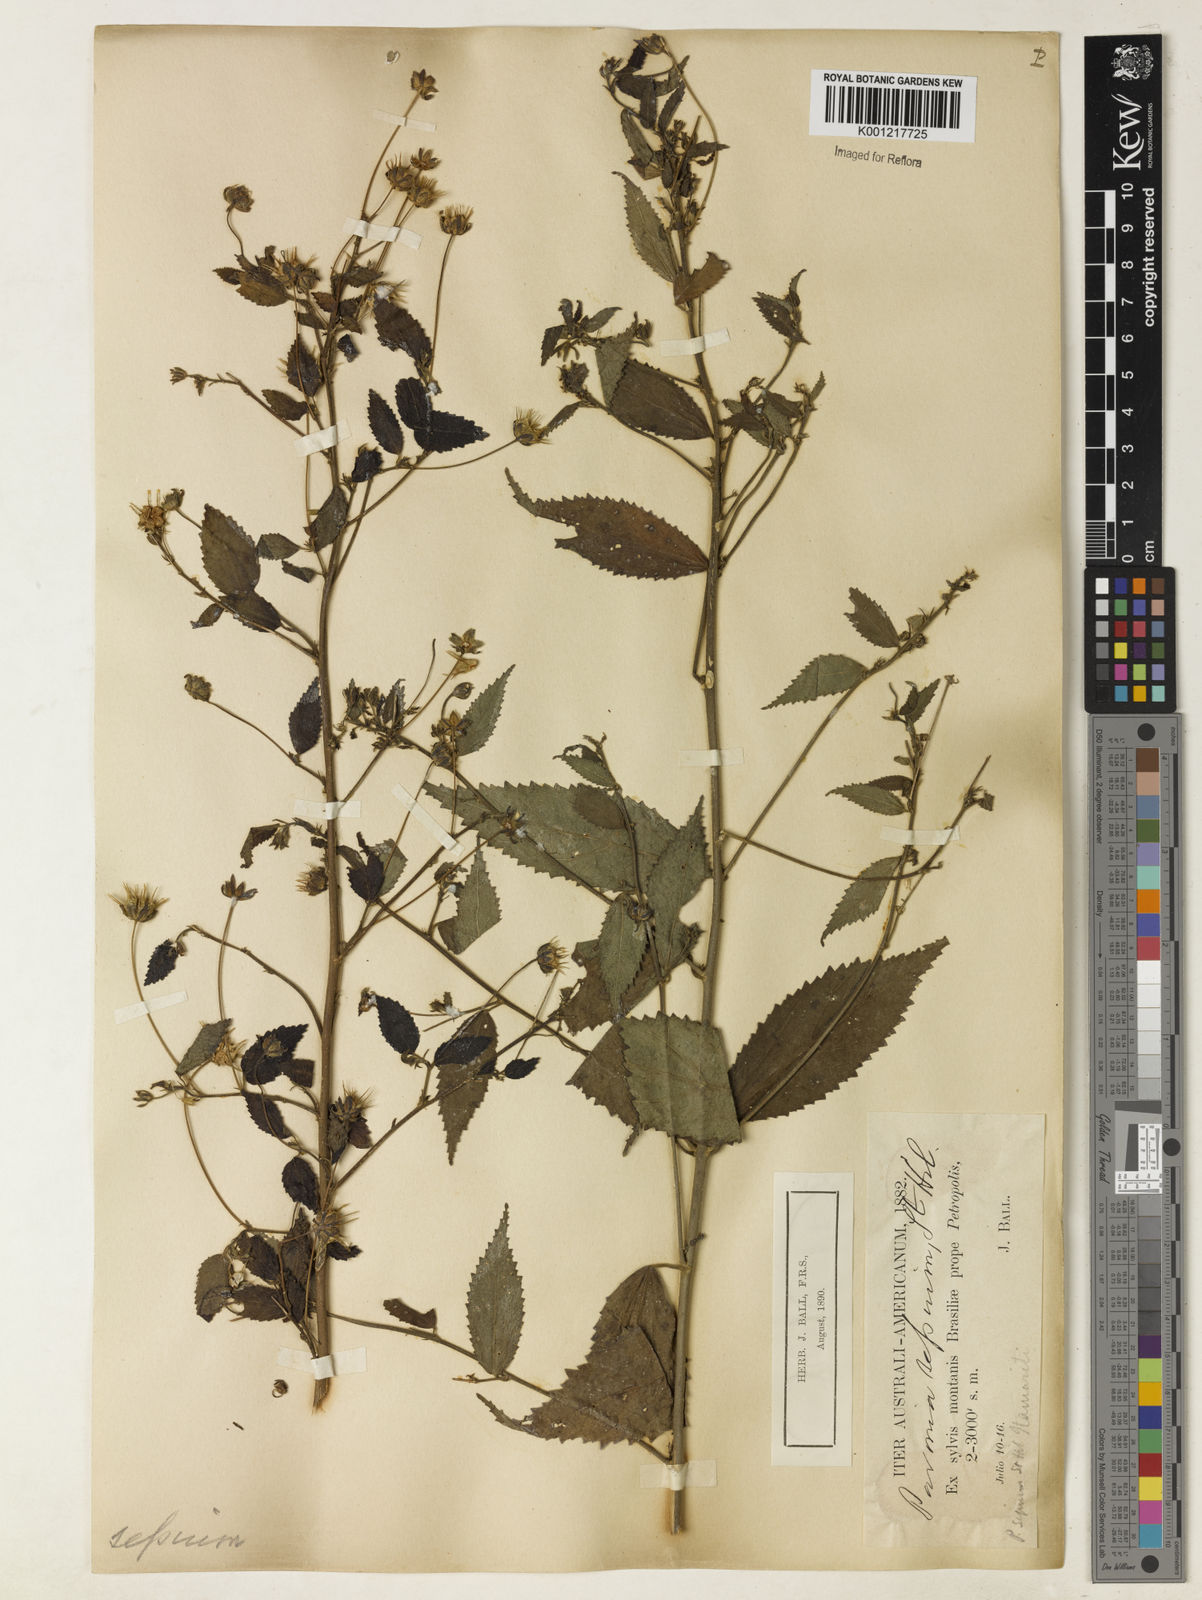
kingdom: Plantae
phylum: Tracheophyta
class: Magnoliopsida
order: Malvales
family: Malvaceae
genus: Pavonia
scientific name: Pavonia sepium
